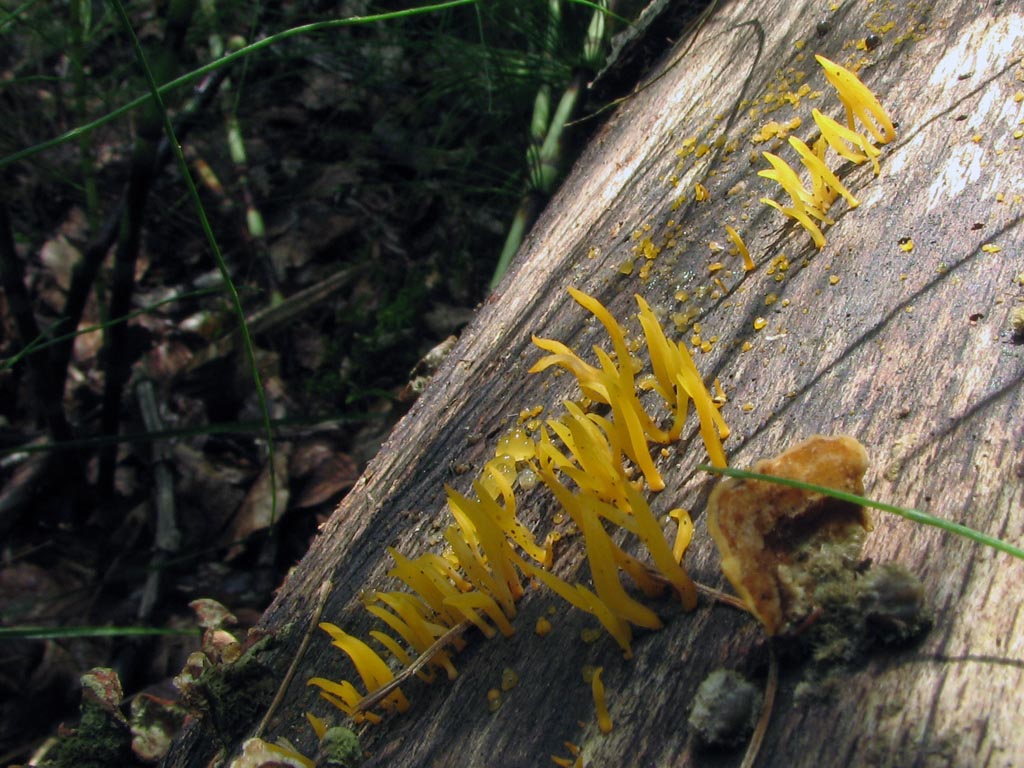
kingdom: Fungi
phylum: Basidiomycota
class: Dacrymycetes
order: Dacrymycetales
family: Dacrymycetaceae
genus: Calocera
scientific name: Calocera cornea
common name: liden guldgaffel
